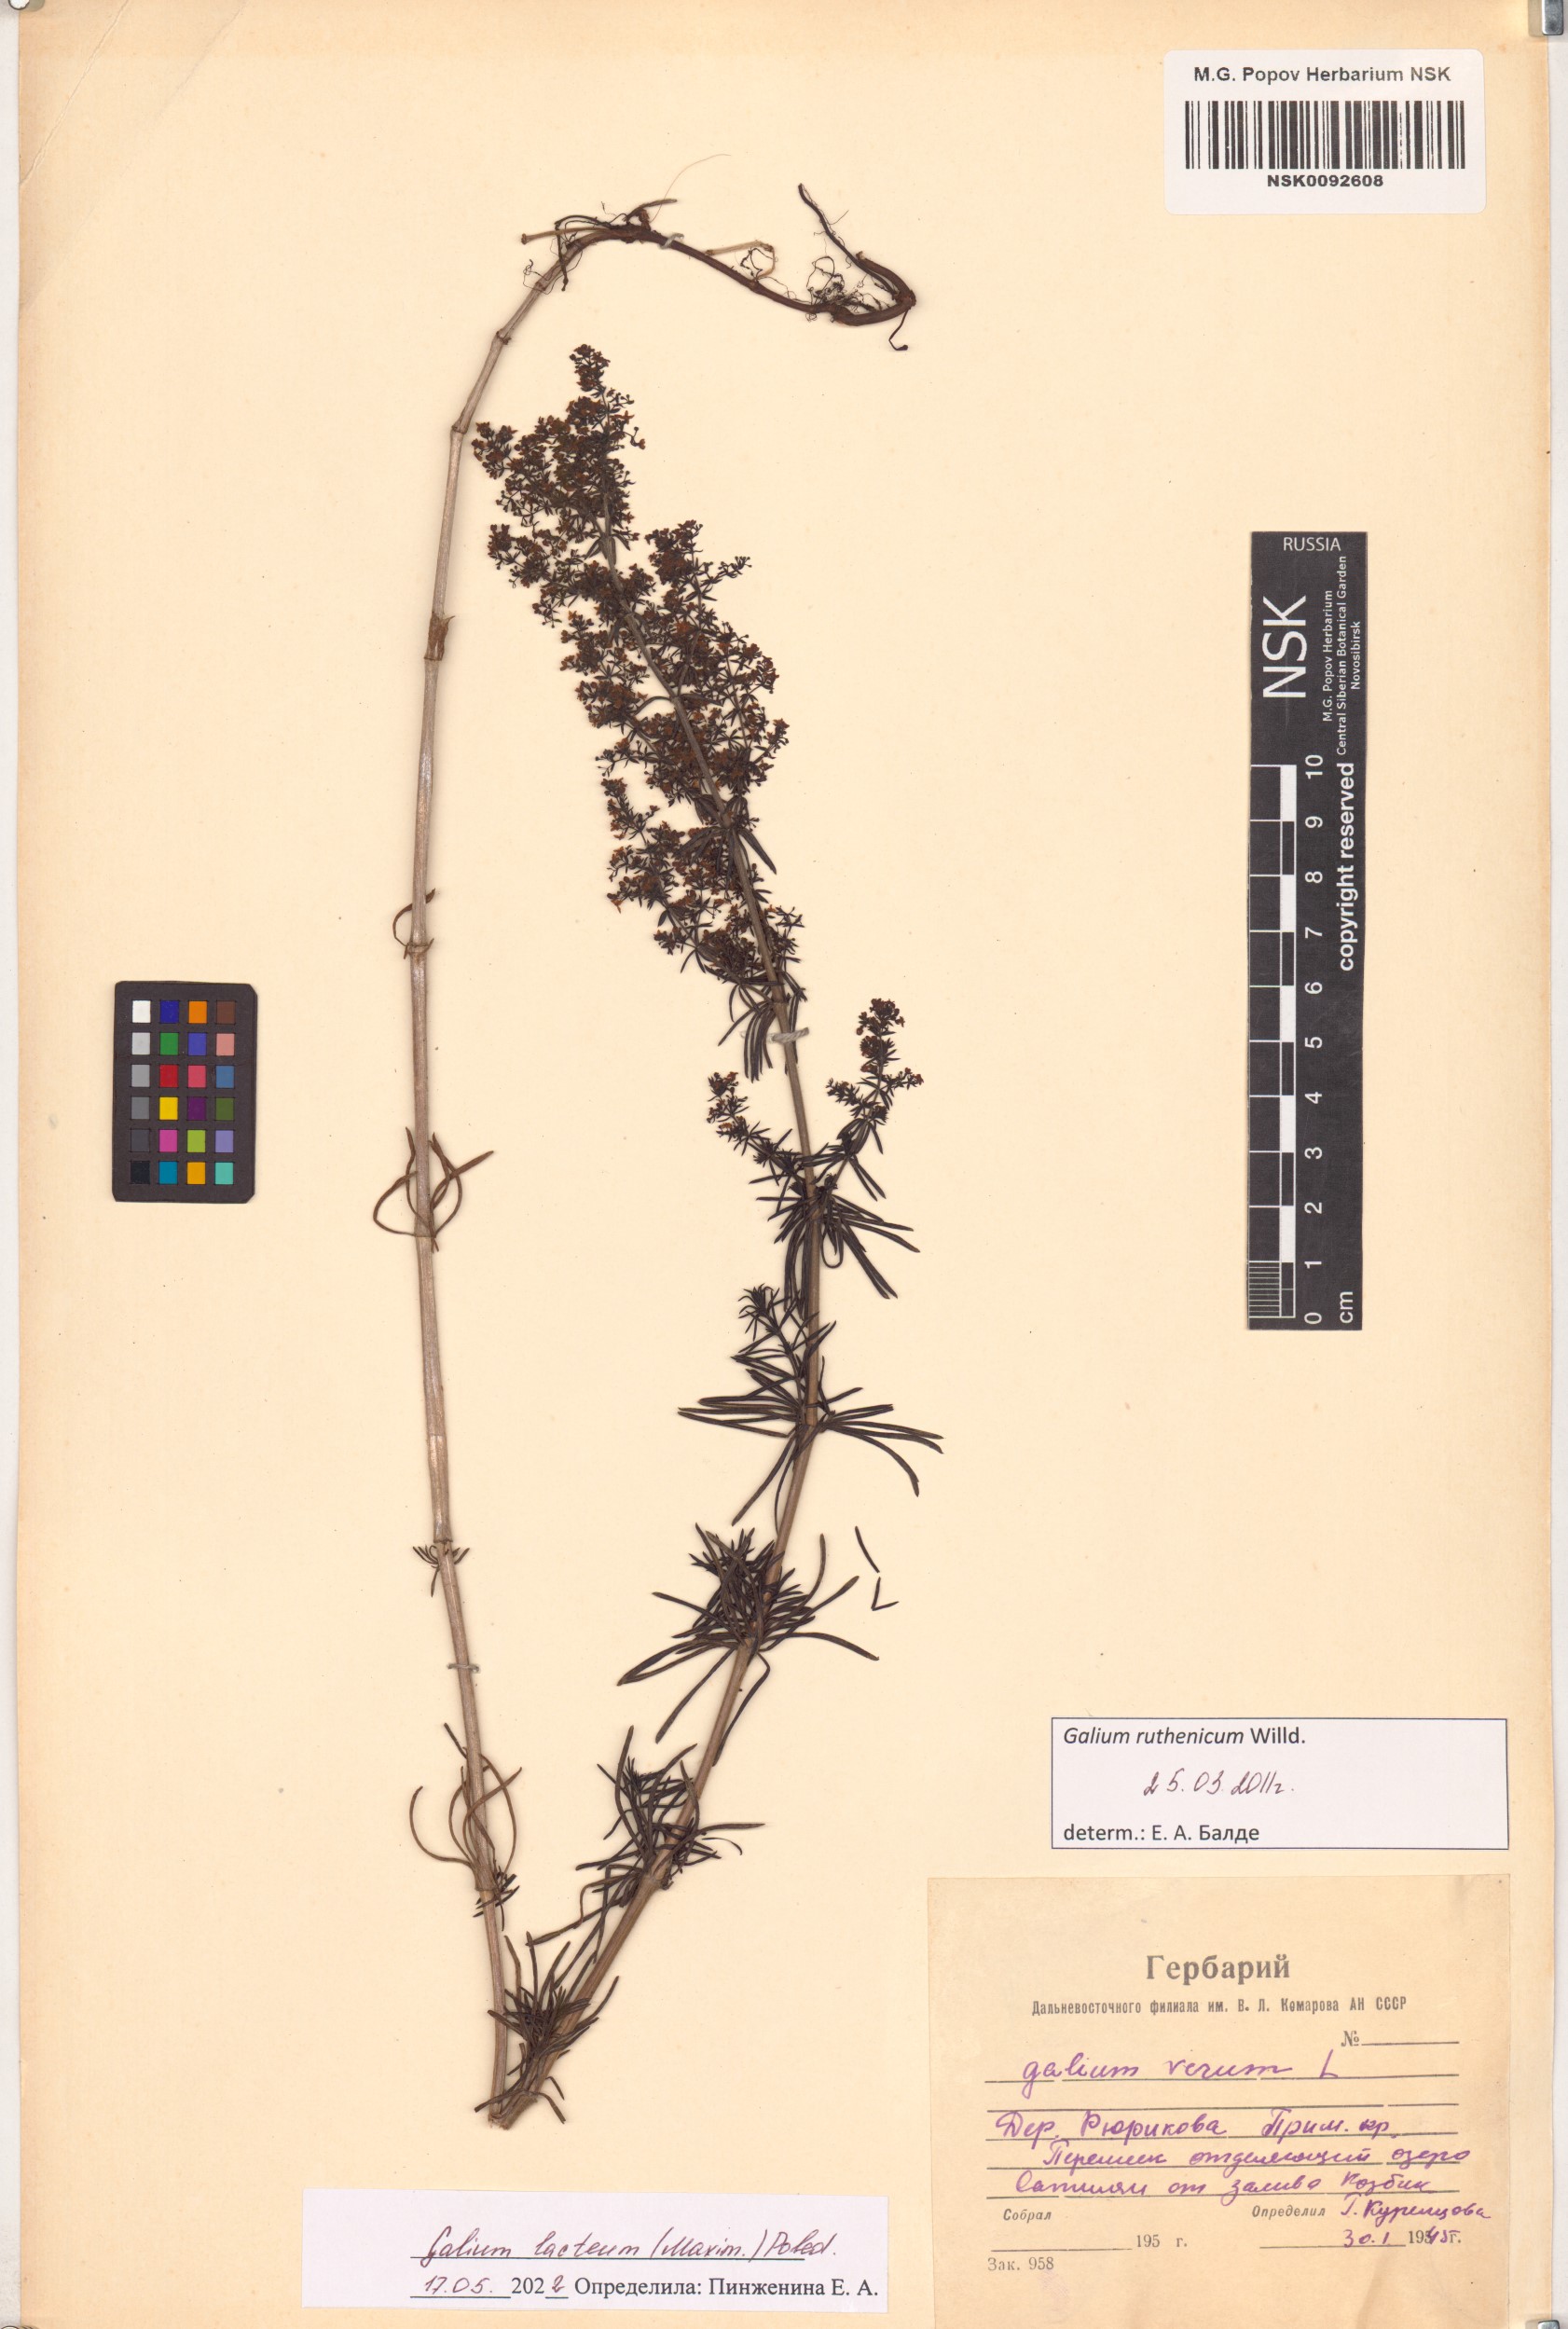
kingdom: Plantae
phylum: Tracheophyta
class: Magnoliopsida
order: Gentianales
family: Rubiaceae
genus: Galium
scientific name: Galium verum
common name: Lady's bedstraw
